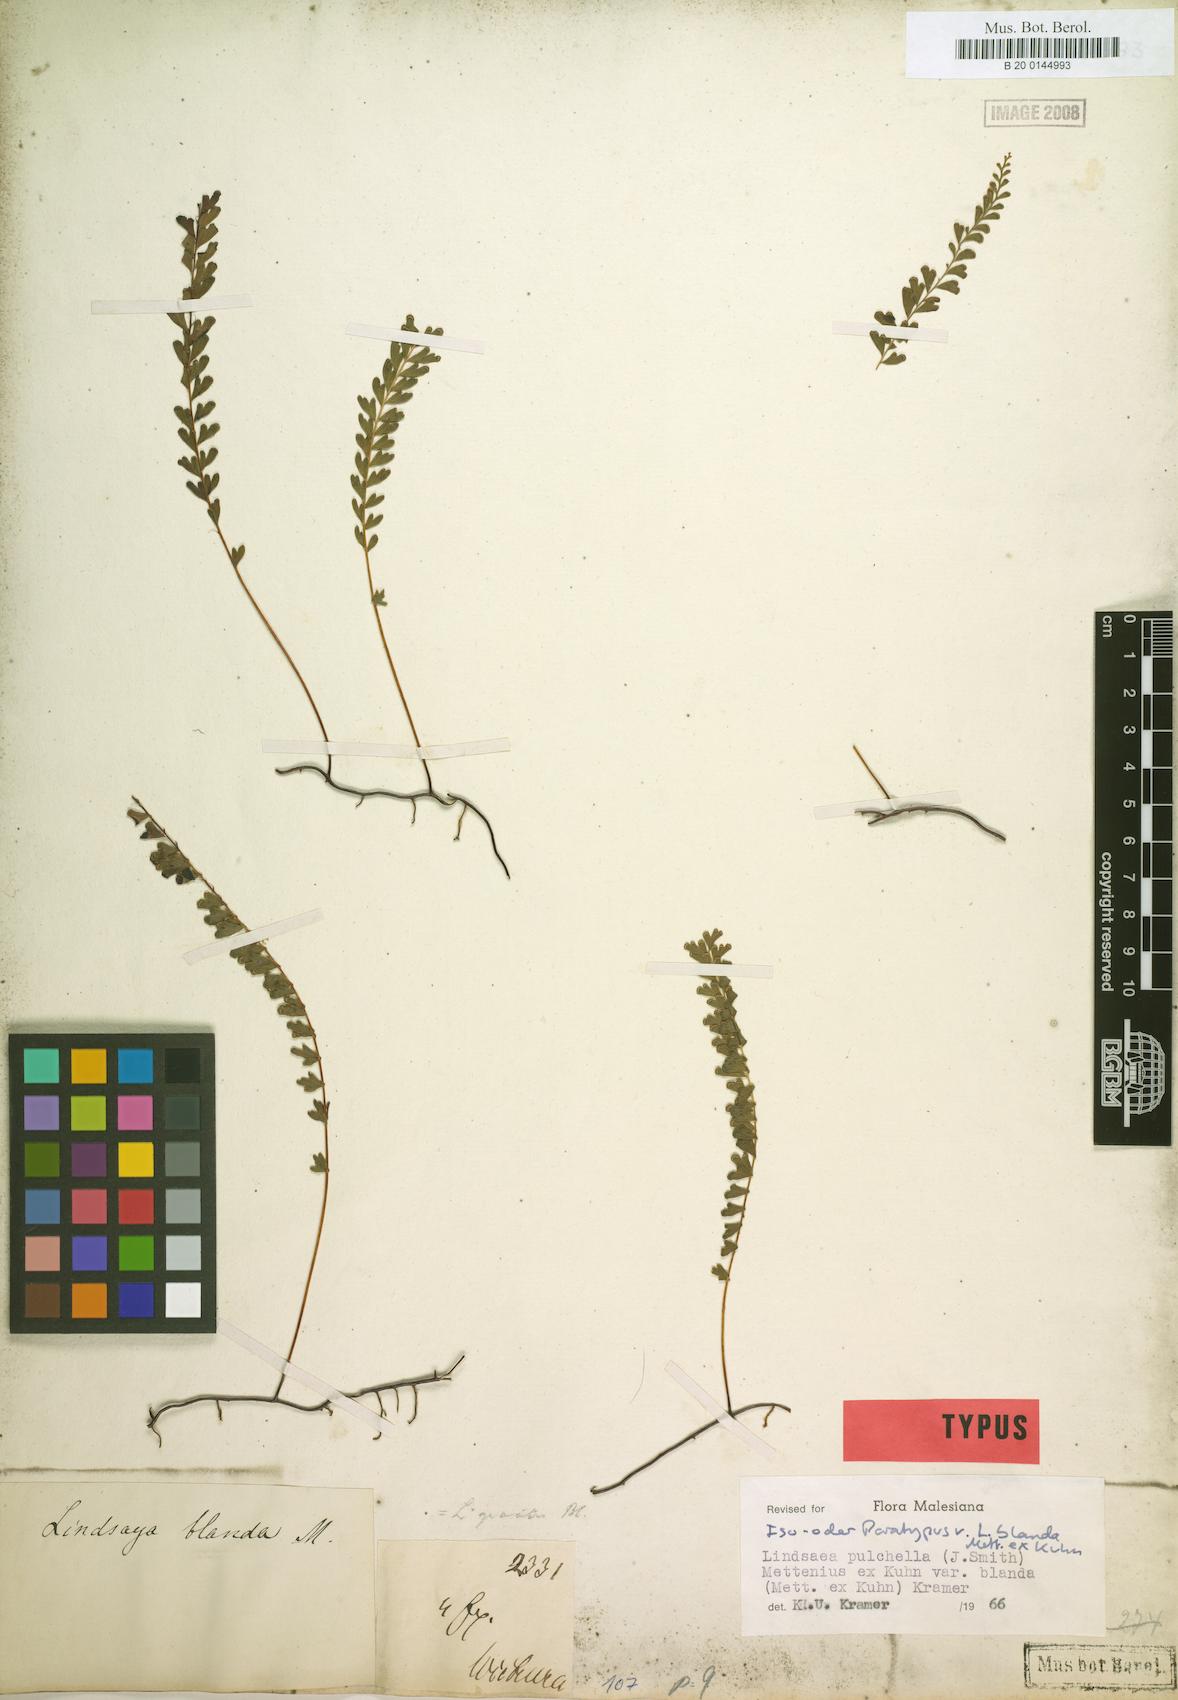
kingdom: Plantae
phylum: Tracheophyta
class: Polypodiopsida
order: Polypodiales
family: Lindsaeaceae
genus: Lindsaea
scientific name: Lindsaea blanda
